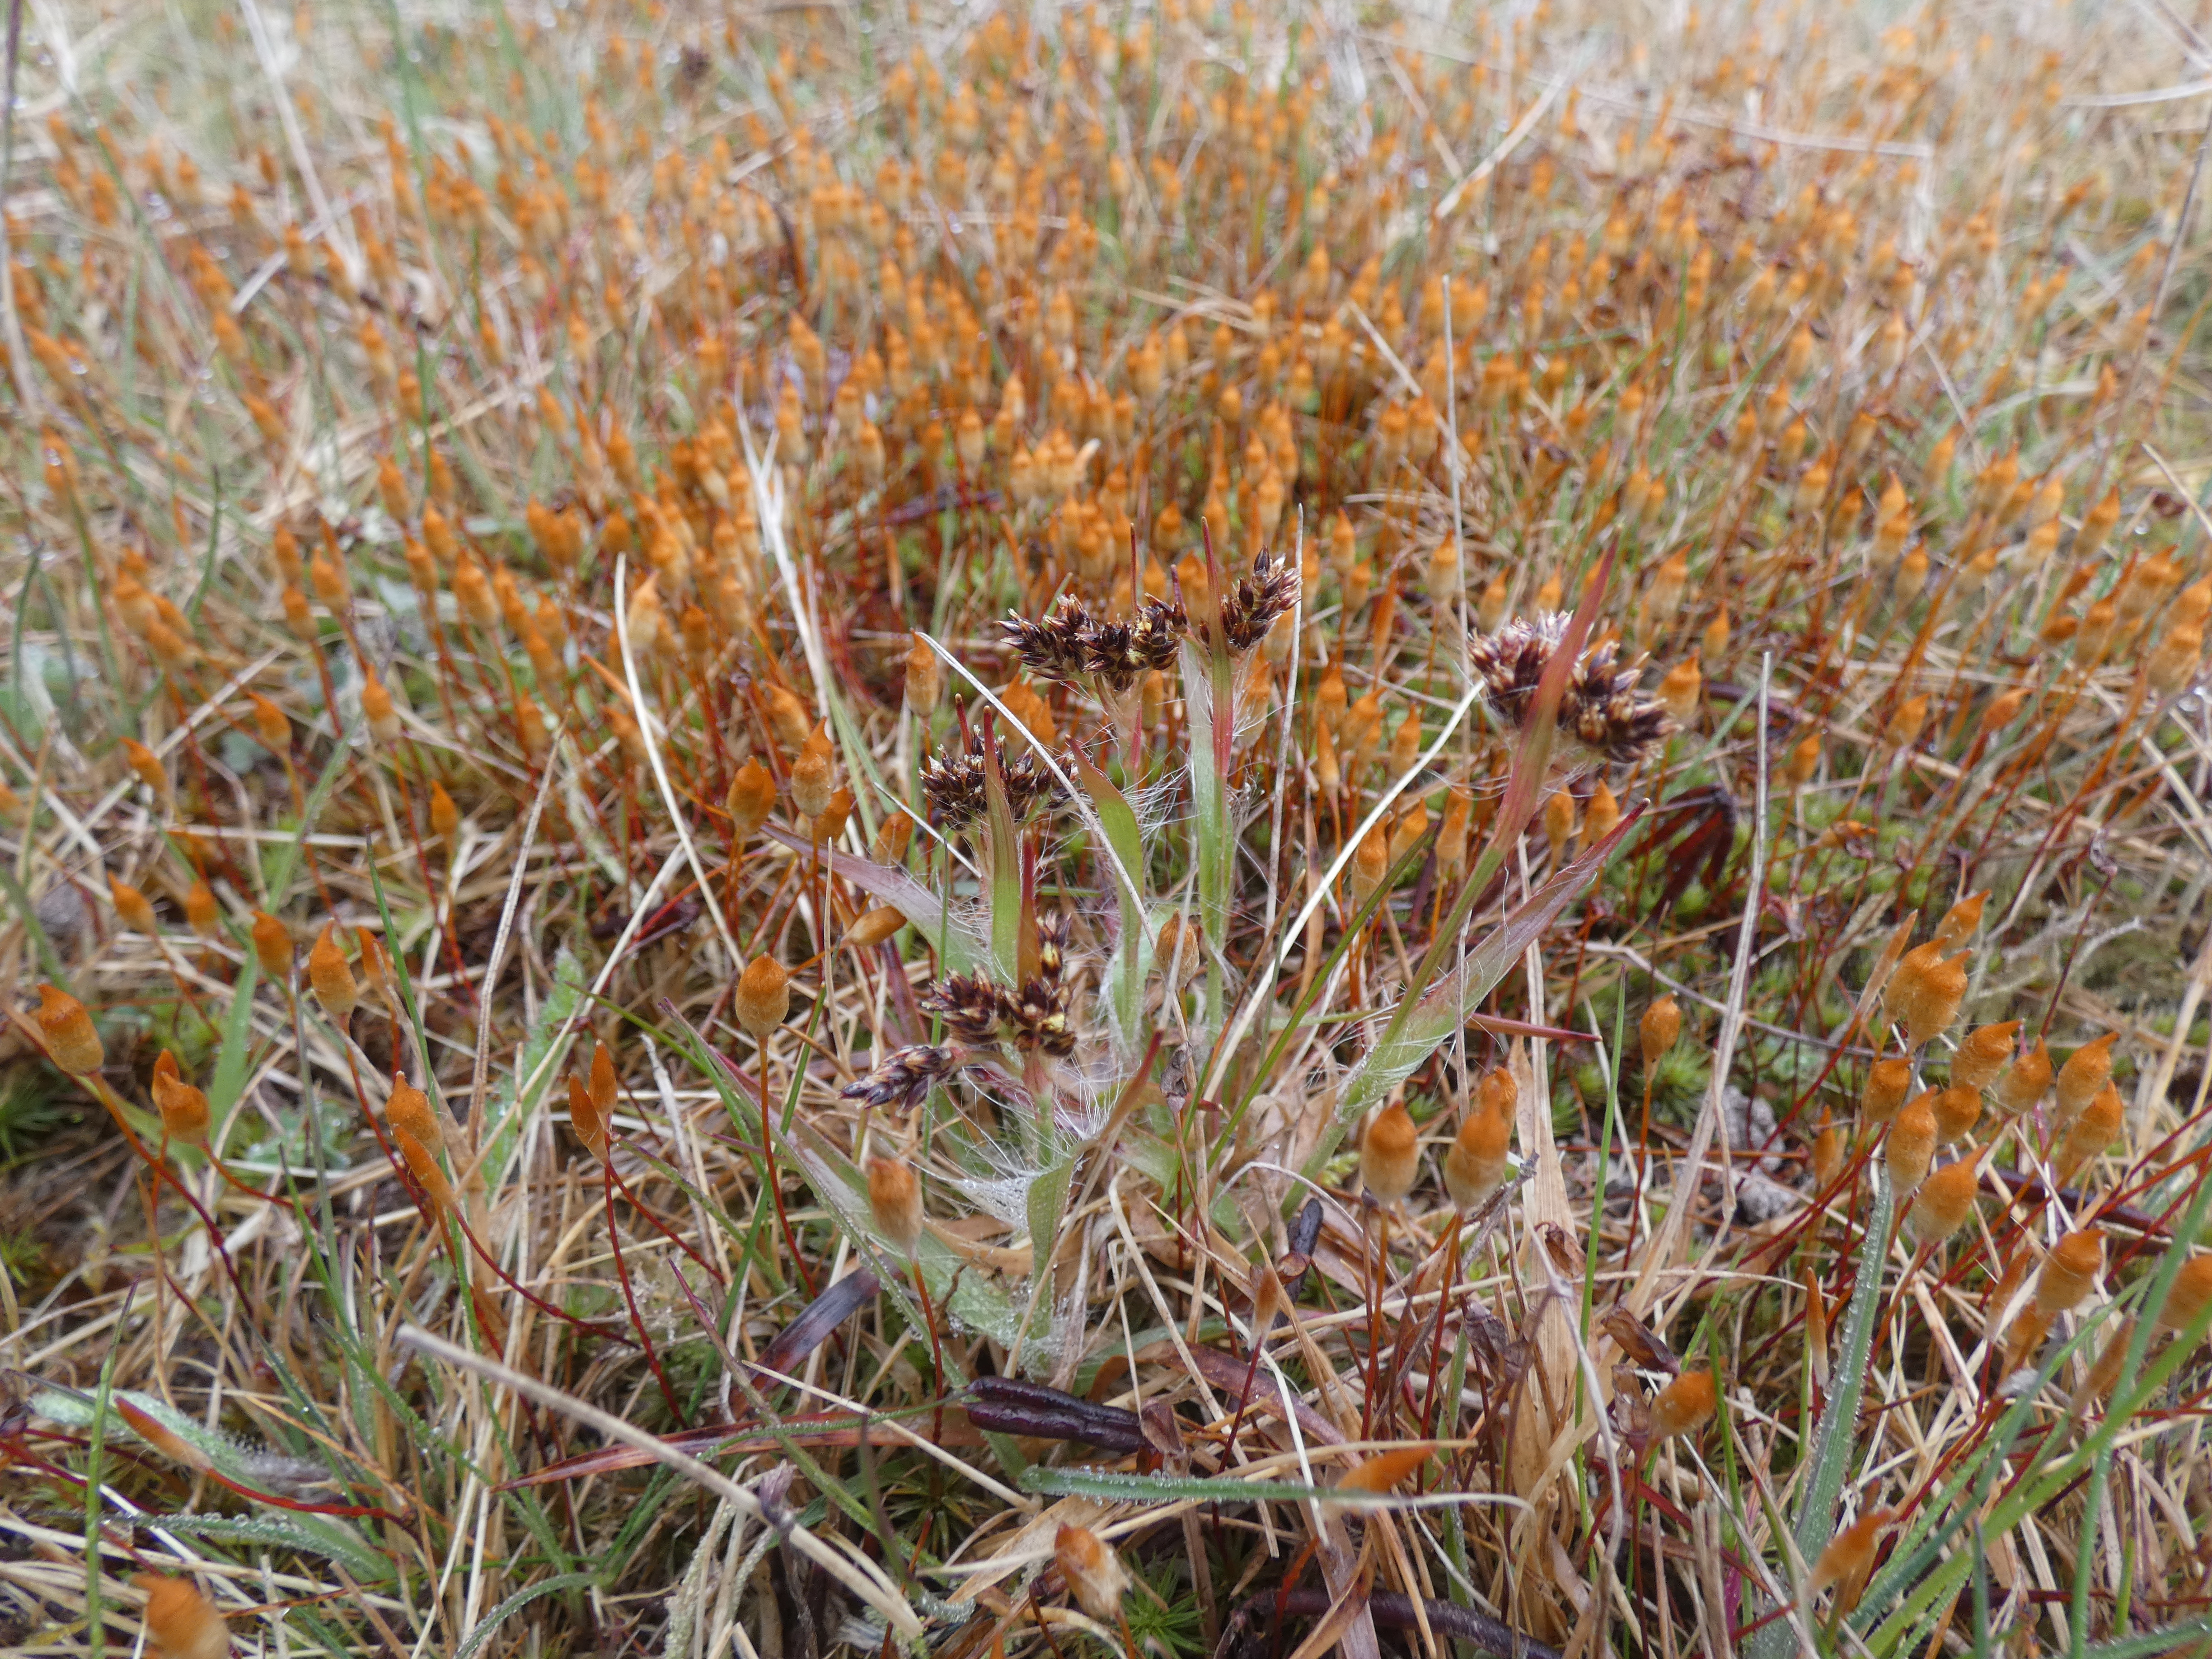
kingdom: Plantae
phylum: Tracheophyta
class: Liliopsida
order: Poales
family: Juncaceae
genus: Luzula
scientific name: Luzula campestris
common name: Mark-frytle
